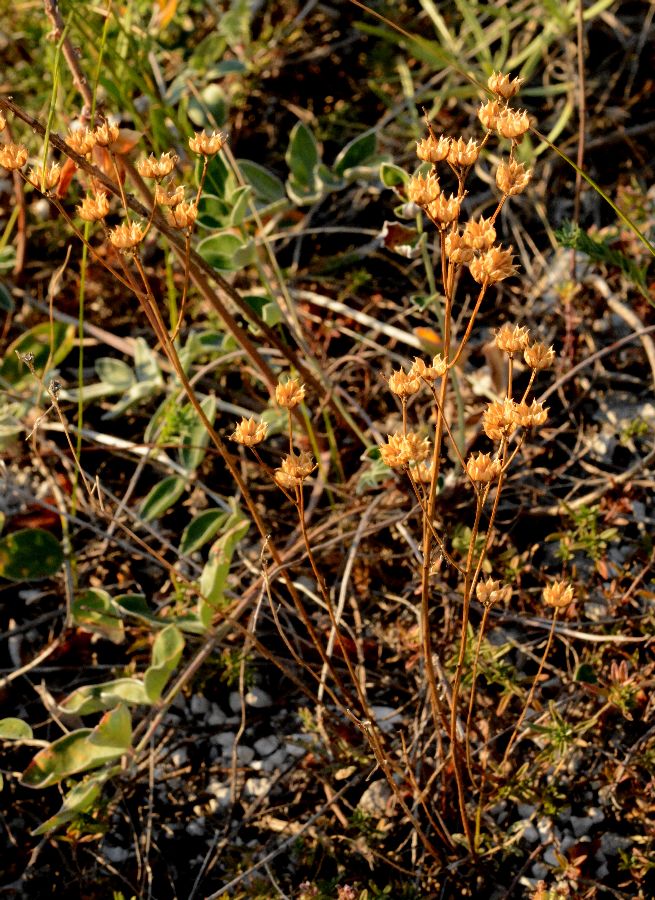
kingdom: Plantae
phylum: Tracheophyta
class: Magnoliopsida
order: Malpighiales
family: Linaceae
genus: Linum
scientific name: Linum ucranicum
